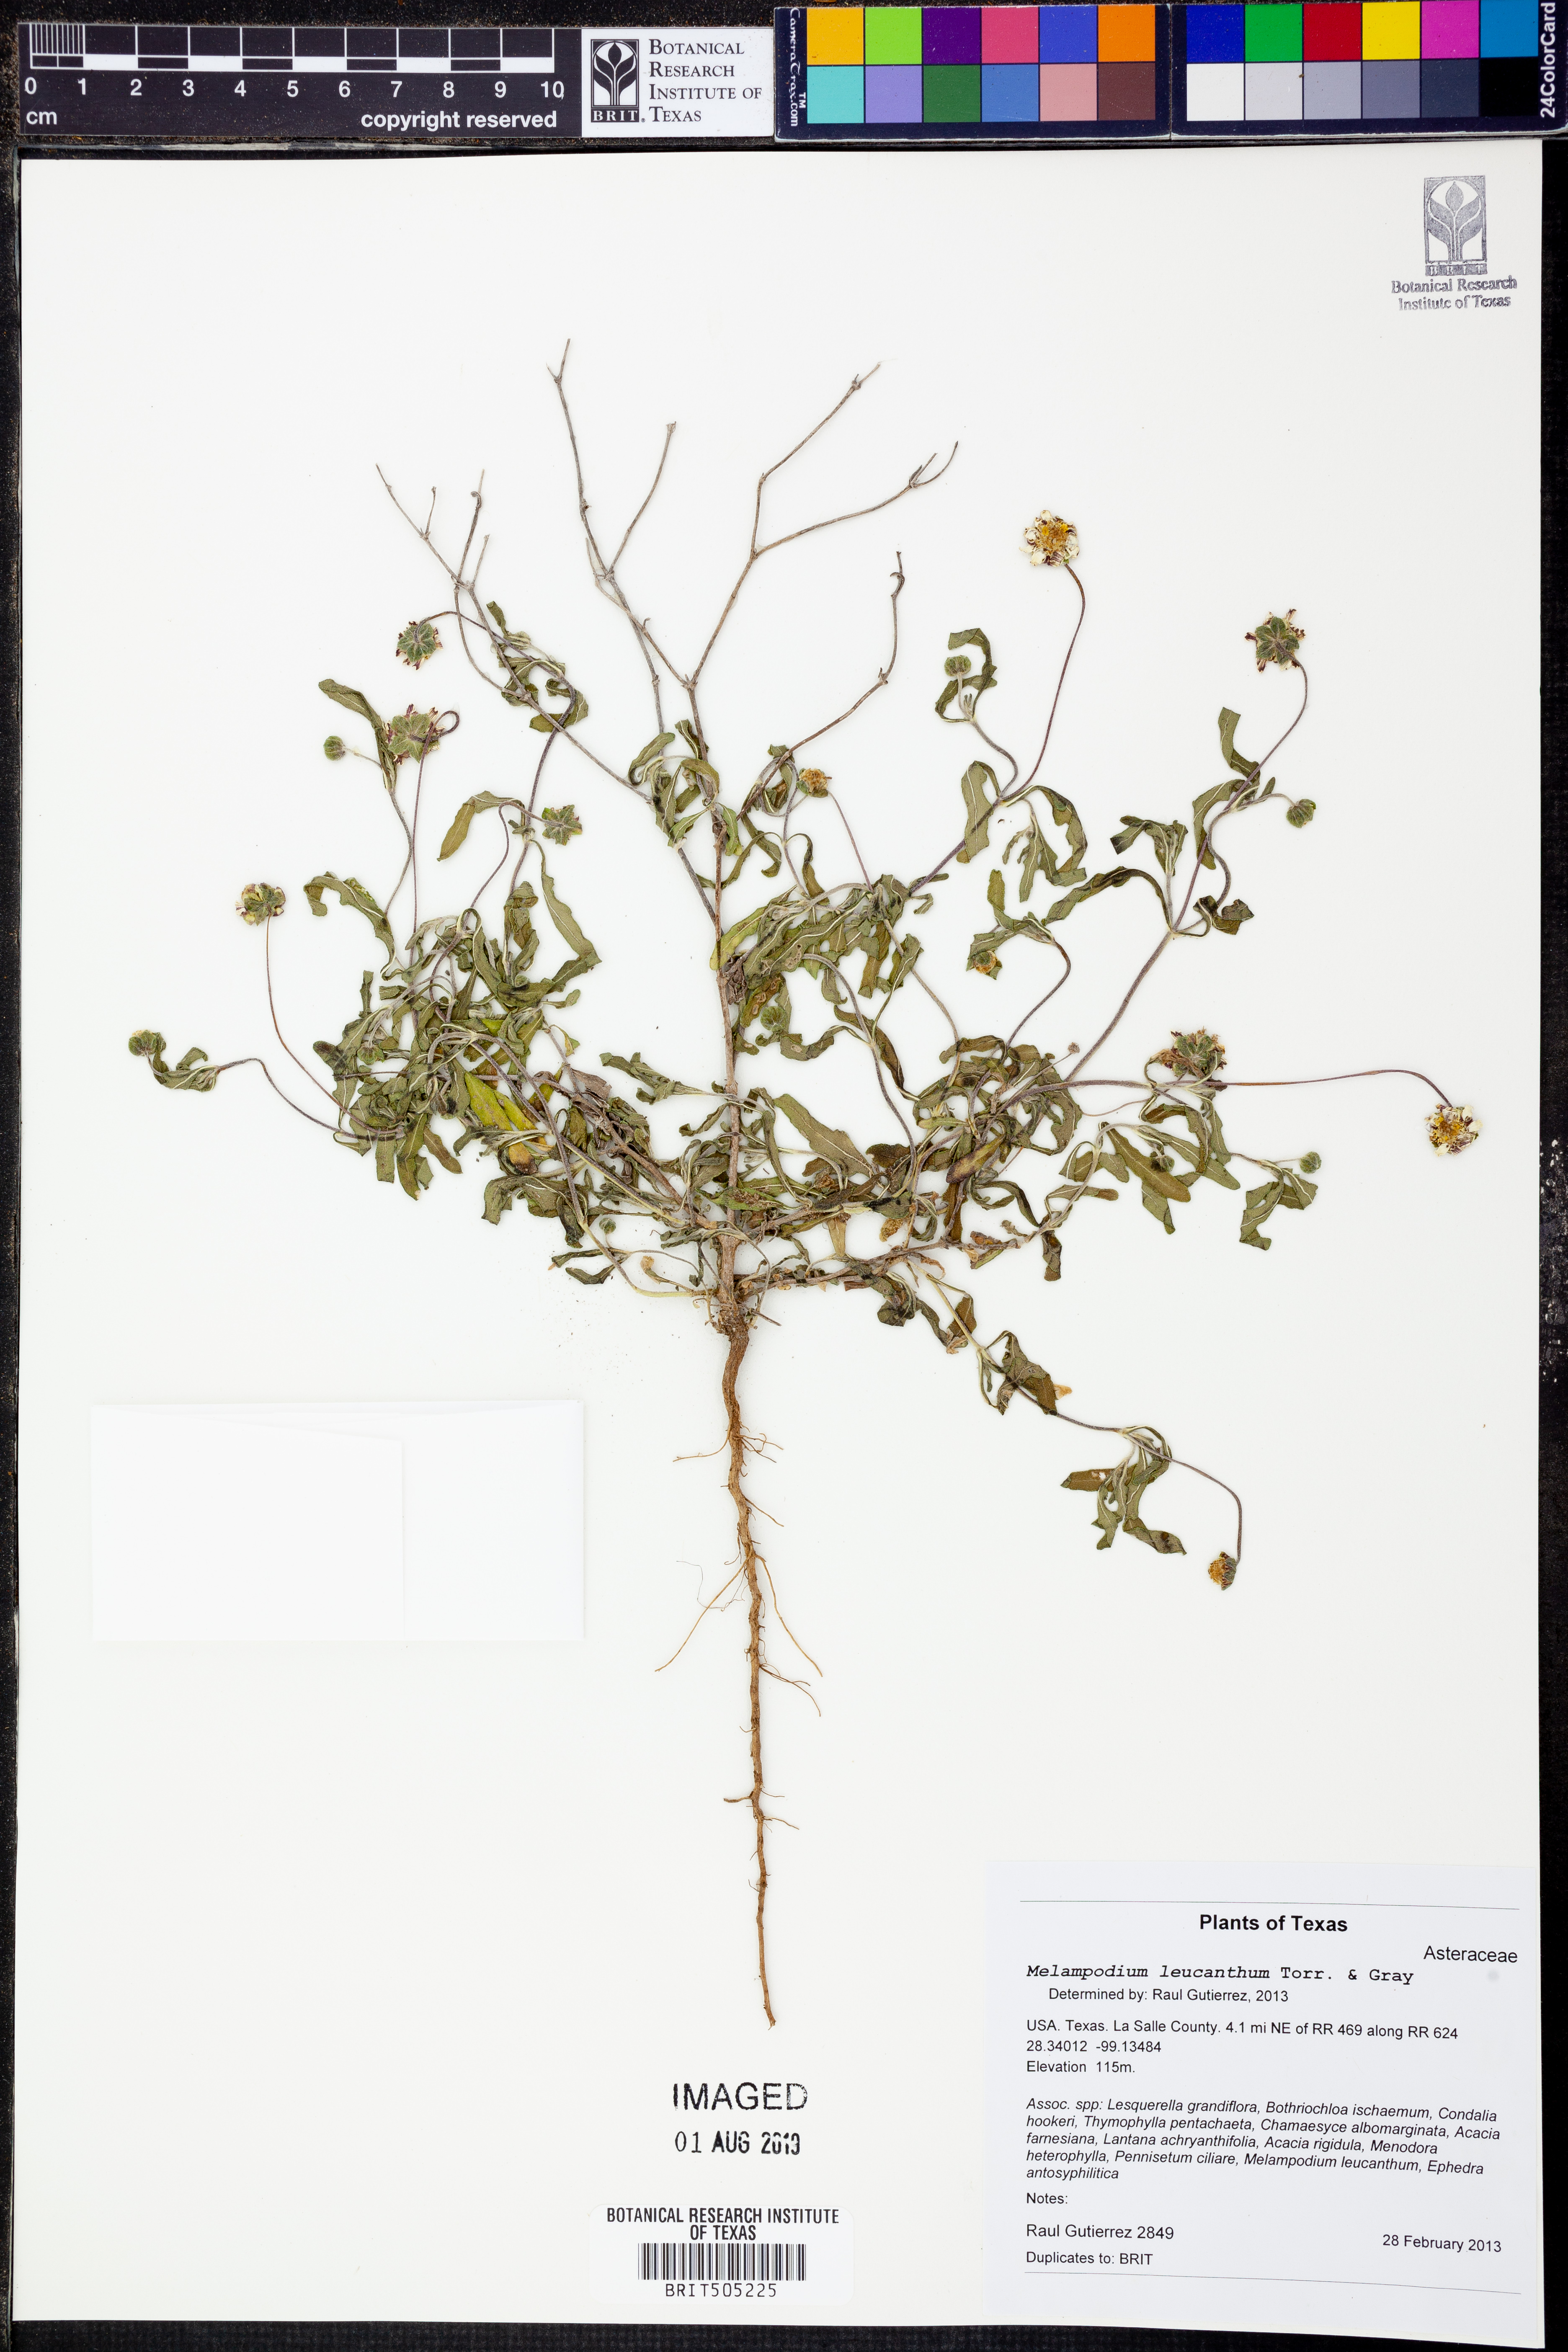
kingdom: Plantae
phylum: Tracheophyta
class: Magnoliopsida
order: Asterales
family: Asteraceae
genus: Melampodium
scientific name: Melampodium leucanthum
